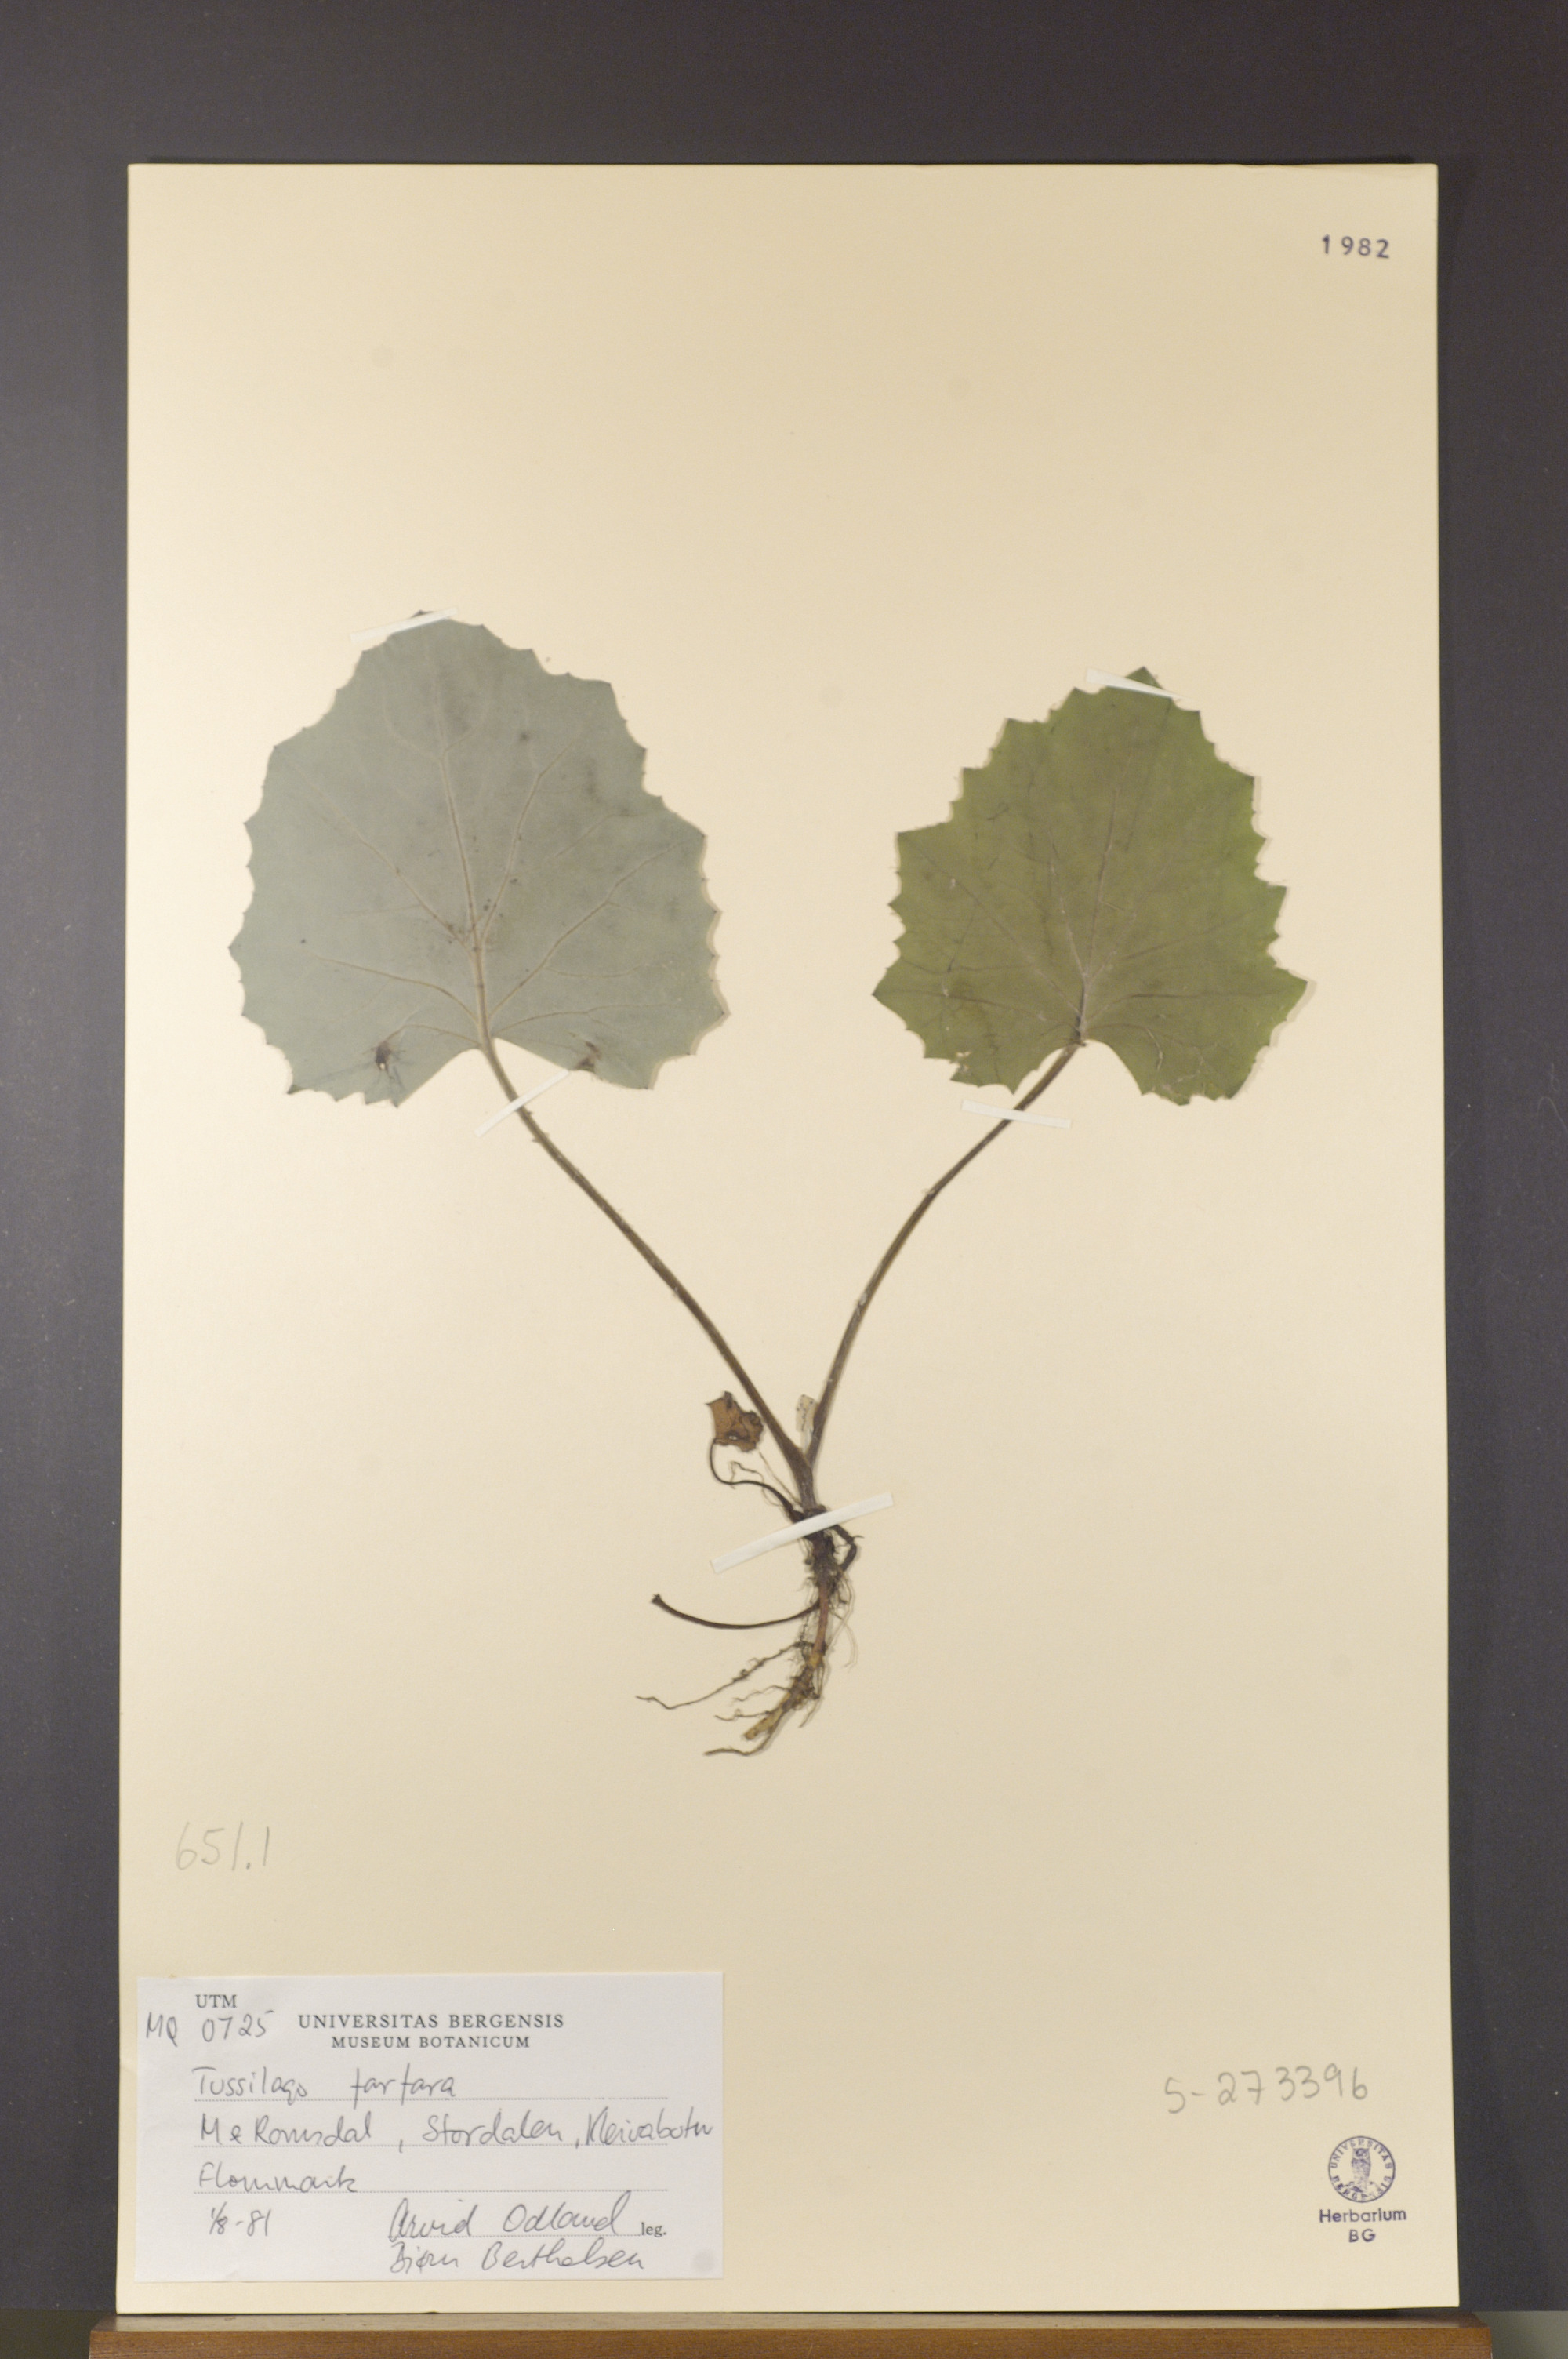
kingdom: Plantae
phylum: Tracheophyta
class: Magnoliopsida
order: Asterales
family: Asteraceae
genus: Tussilago
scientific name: Tussilago farfara
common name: Coltsfoot
